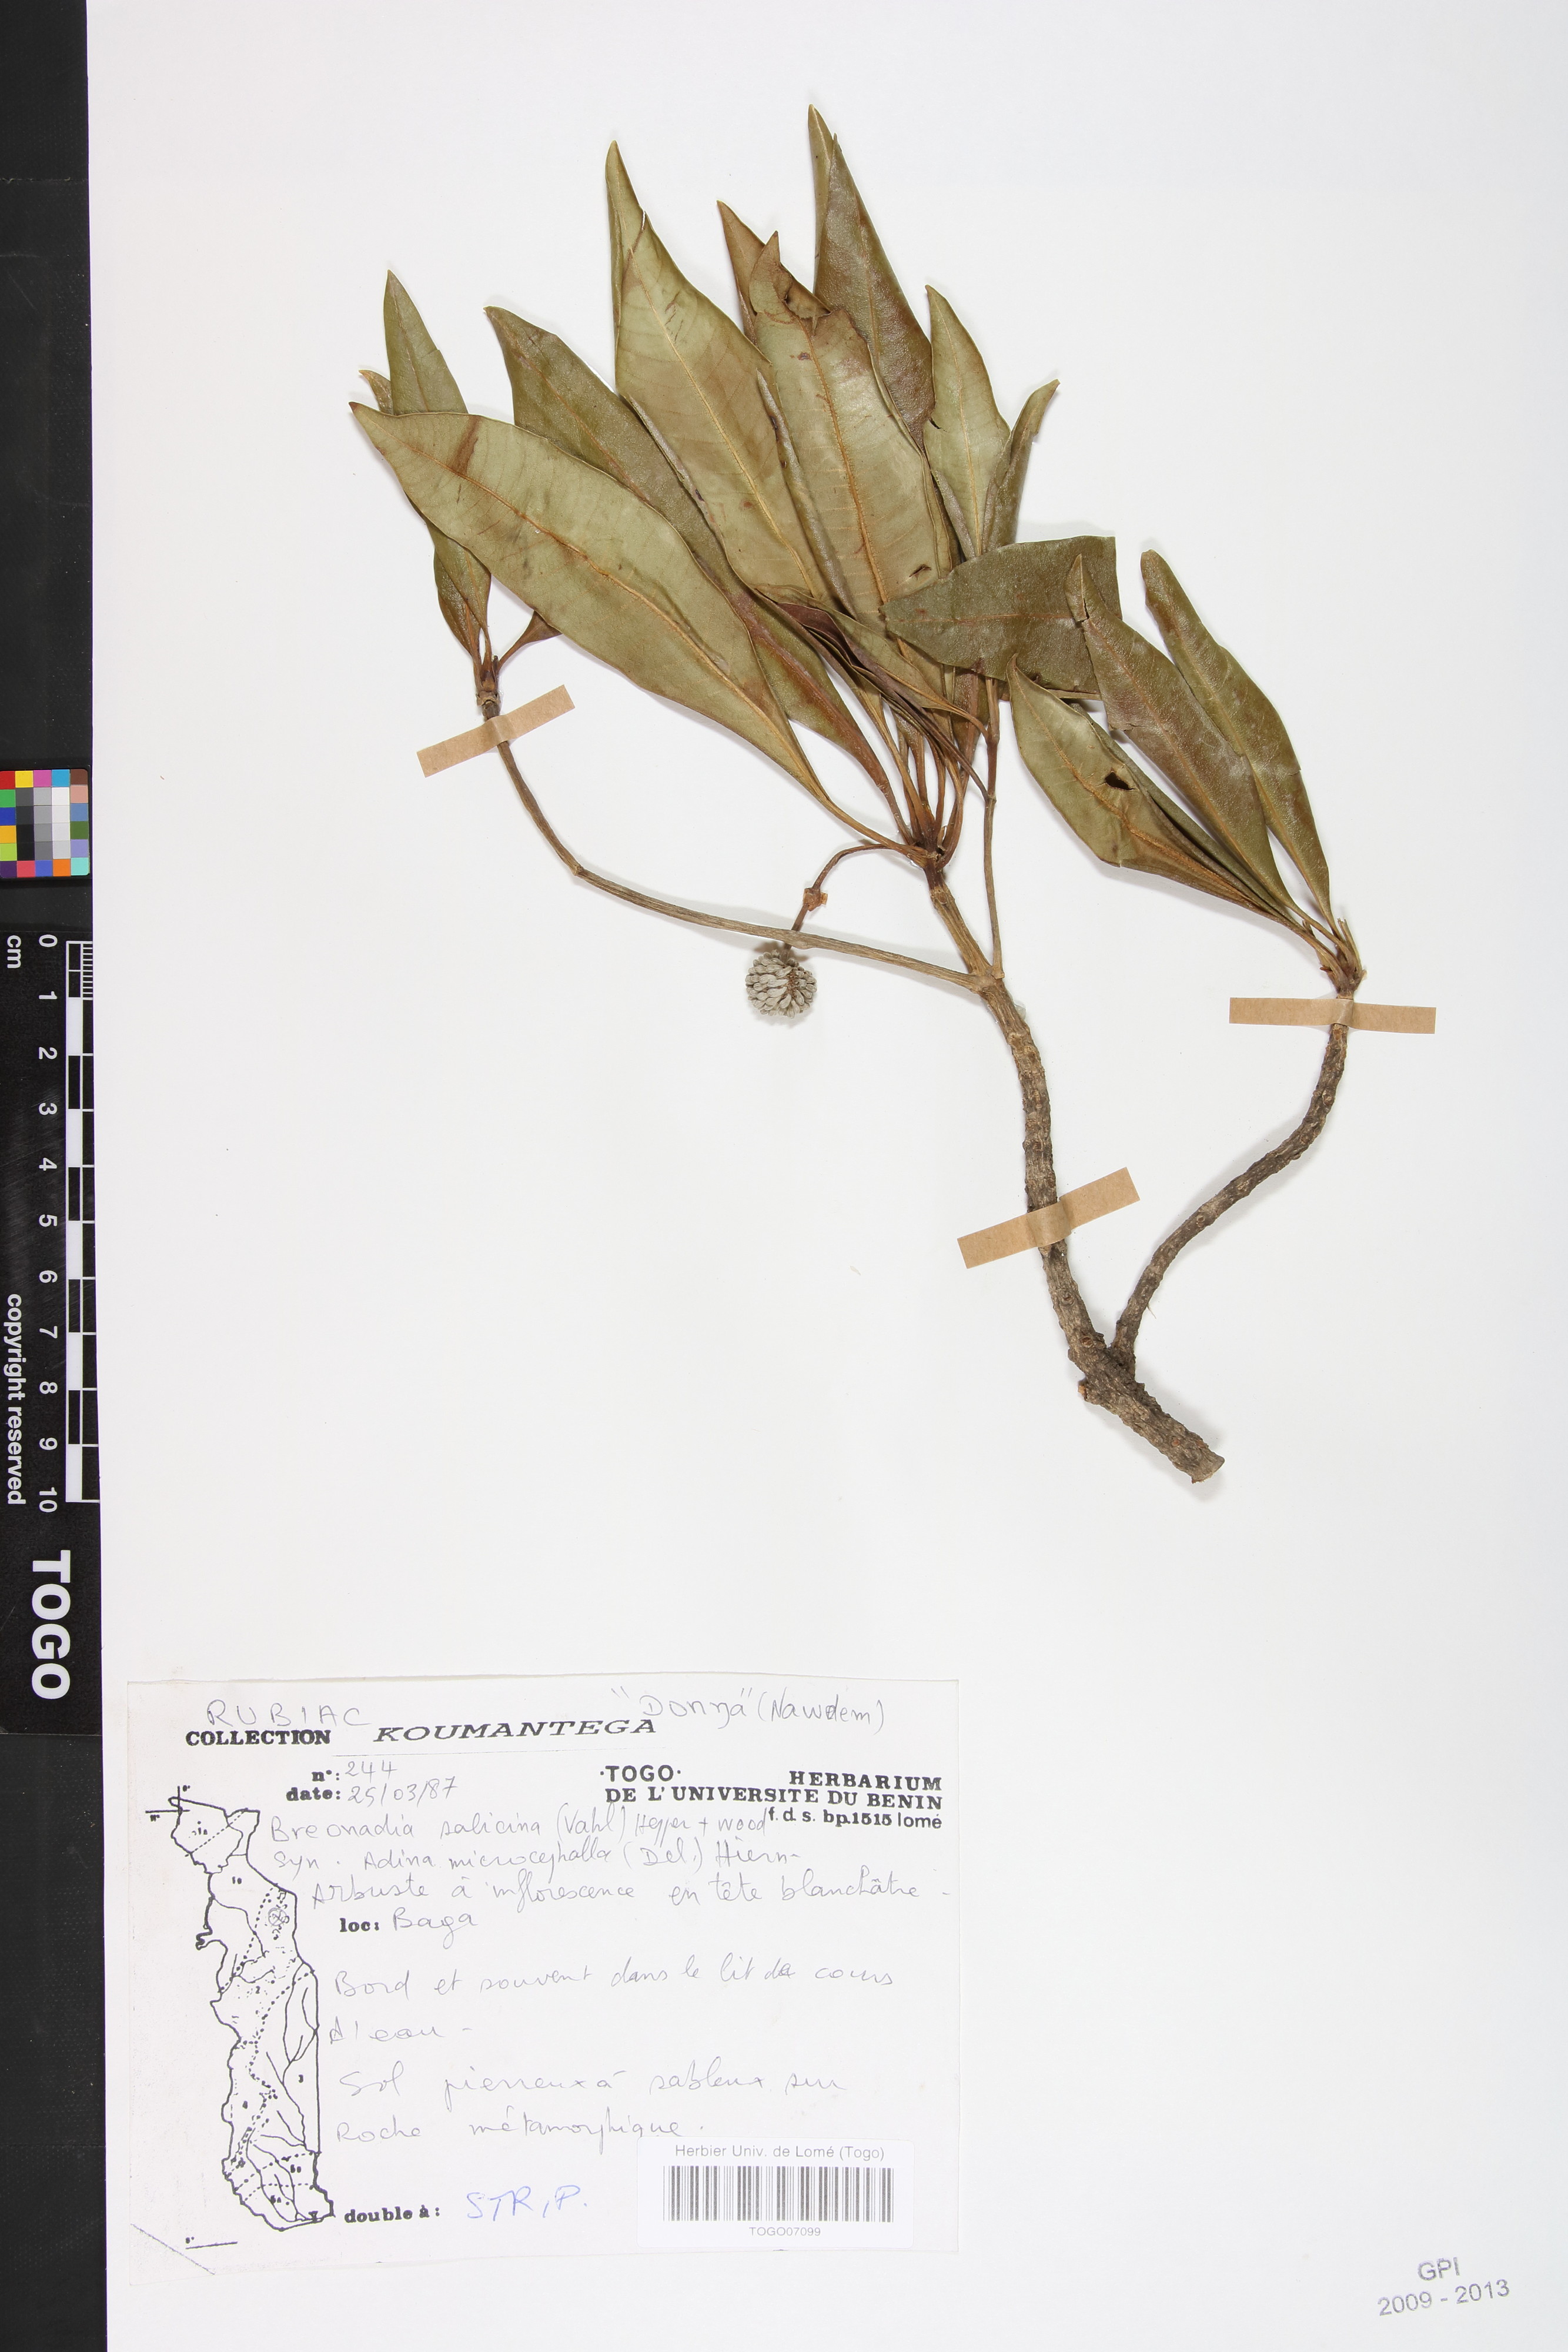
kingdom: Plantae
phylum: Tracheophyta
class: Magnoliopsida
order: Gentianales
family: Rubiaceae
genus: Breonadia
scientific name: Breonadia salicina
